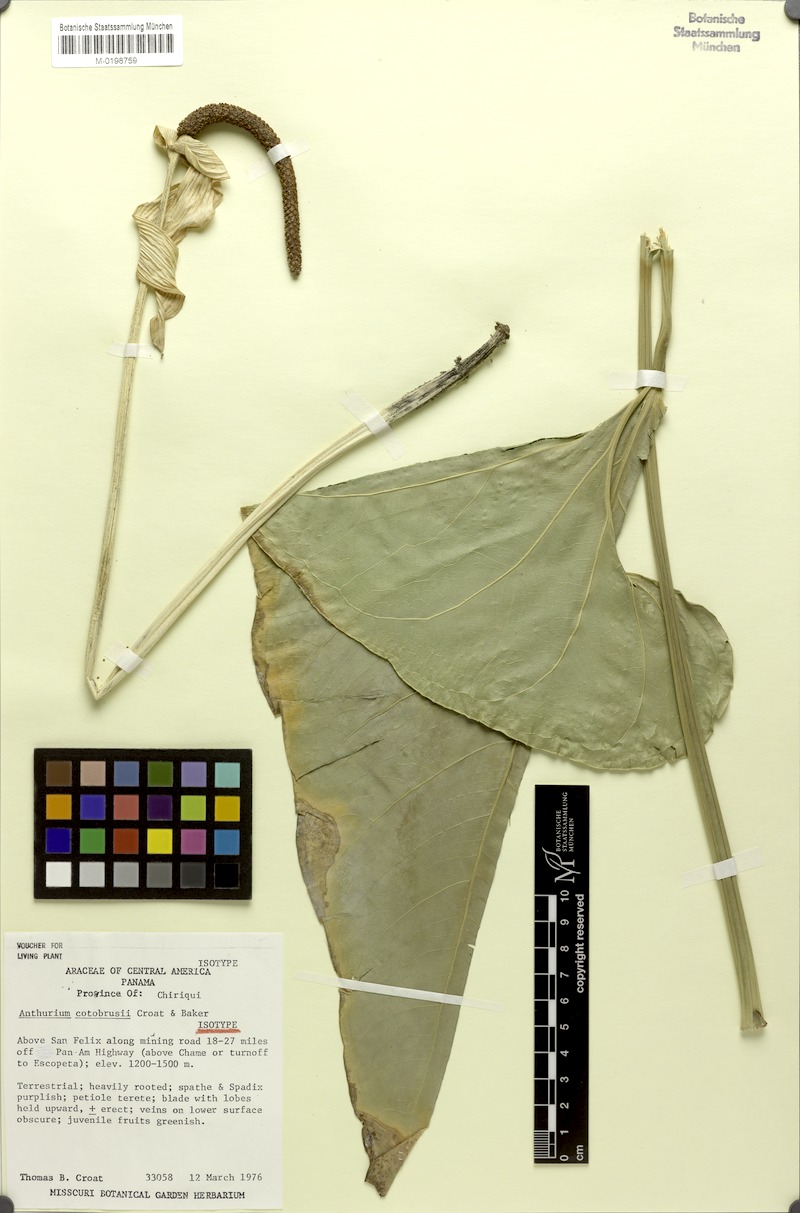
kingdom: Plantae
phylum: Tracheophyta
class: Liliopsida
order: Alismatales
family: Araceae
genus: Anthurium
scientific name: Anthurium cotobrusii
